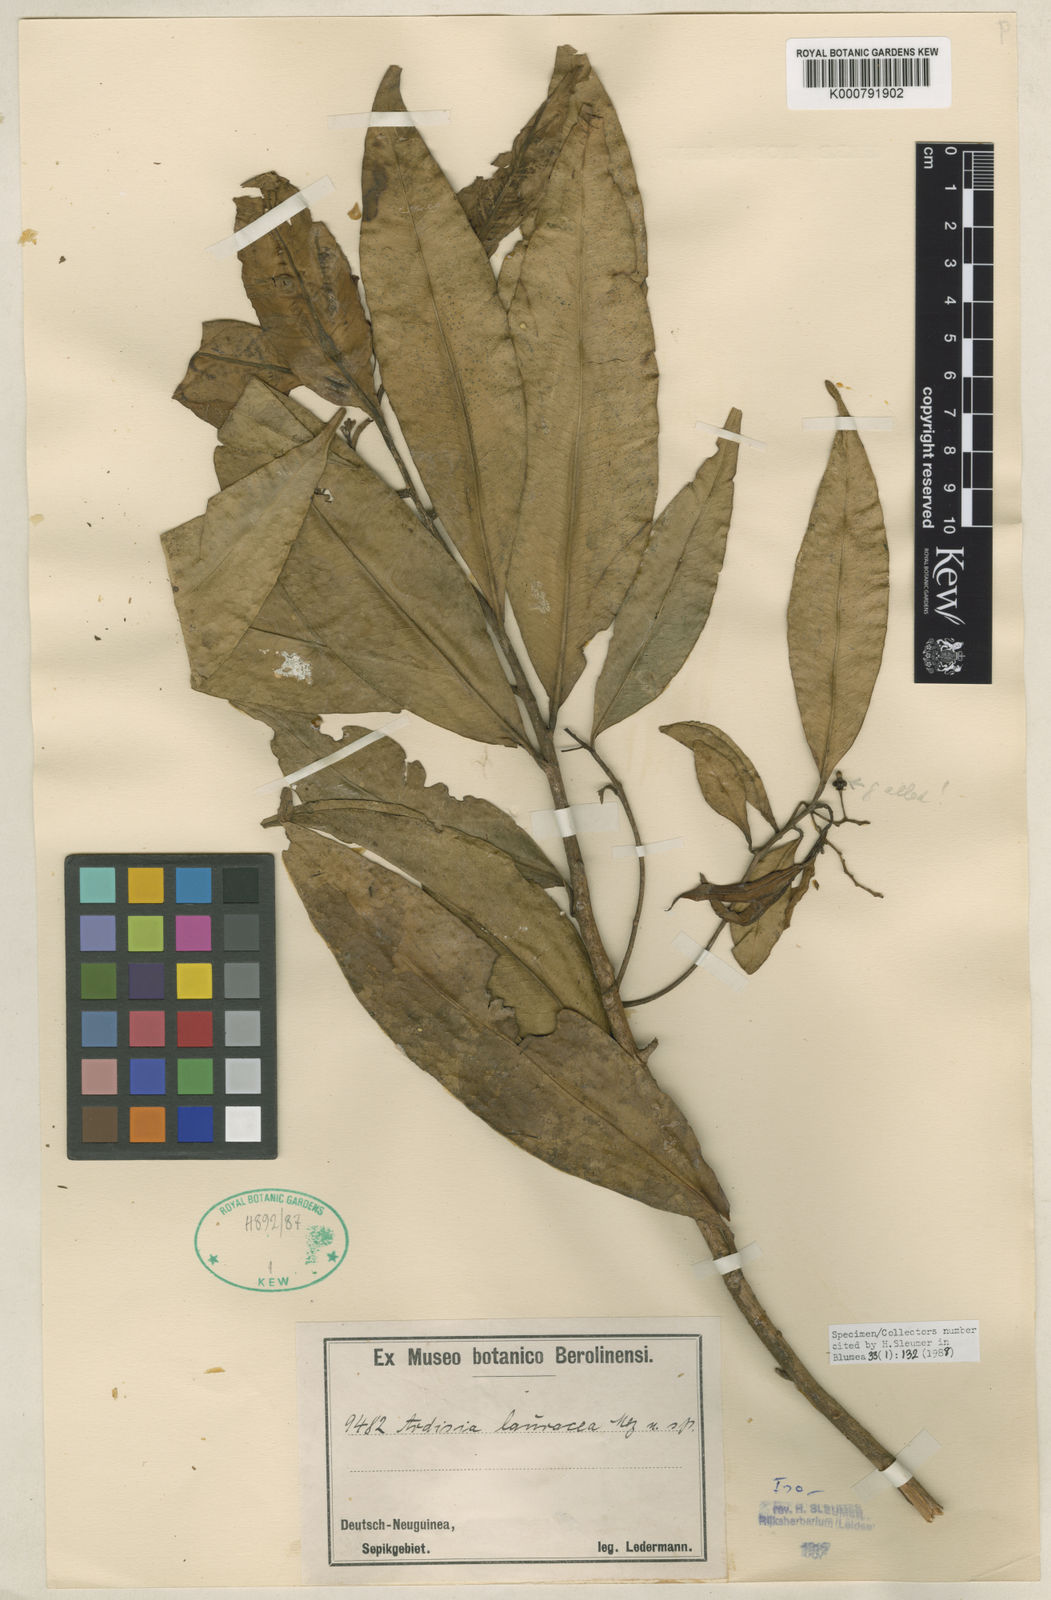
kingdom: Plantae
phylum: Tracheophyta
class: Magnoliopsida
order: Ericales
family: Primulaceae
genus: Ardisia
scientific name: Ardisia lauracea
